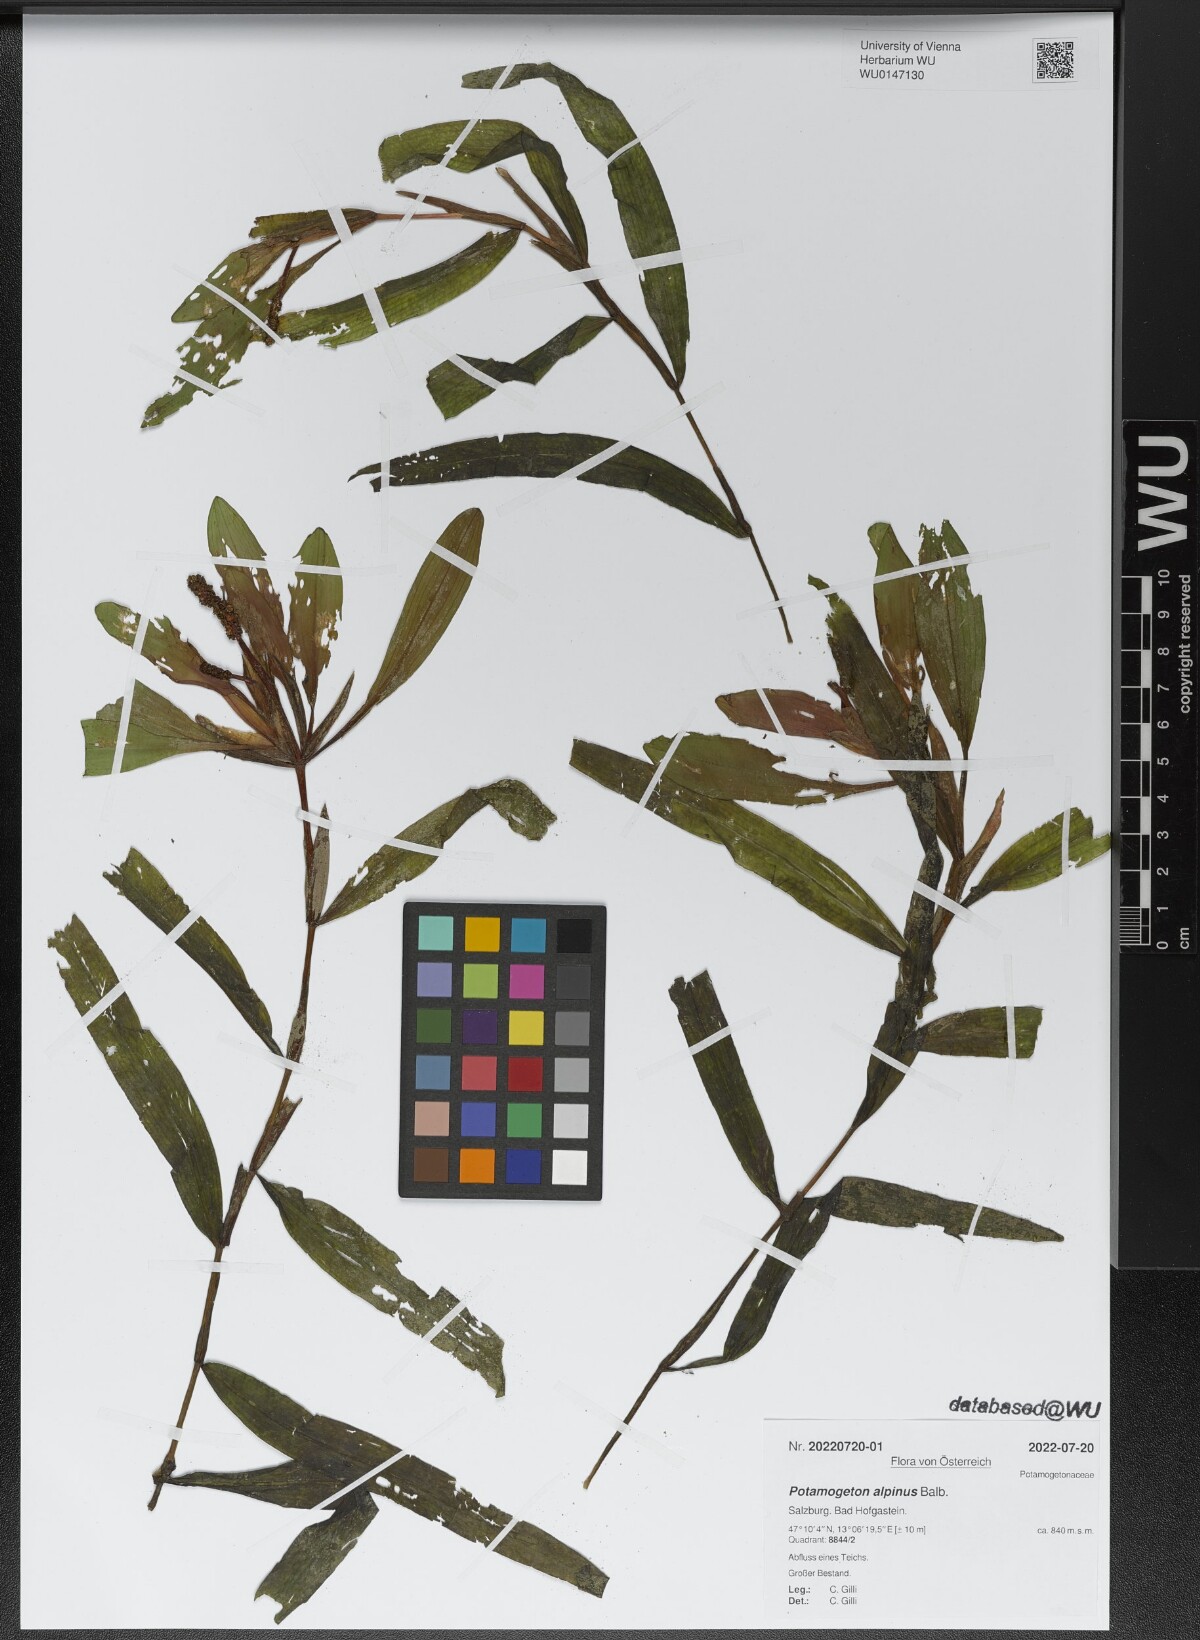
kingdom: Plantae
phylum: Tracheophyta
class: Liliopsida
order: Alismatales
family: Potamogetonaceae
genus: Potamogeton
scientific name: Potamogeton alpinus
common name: Red pondweed
